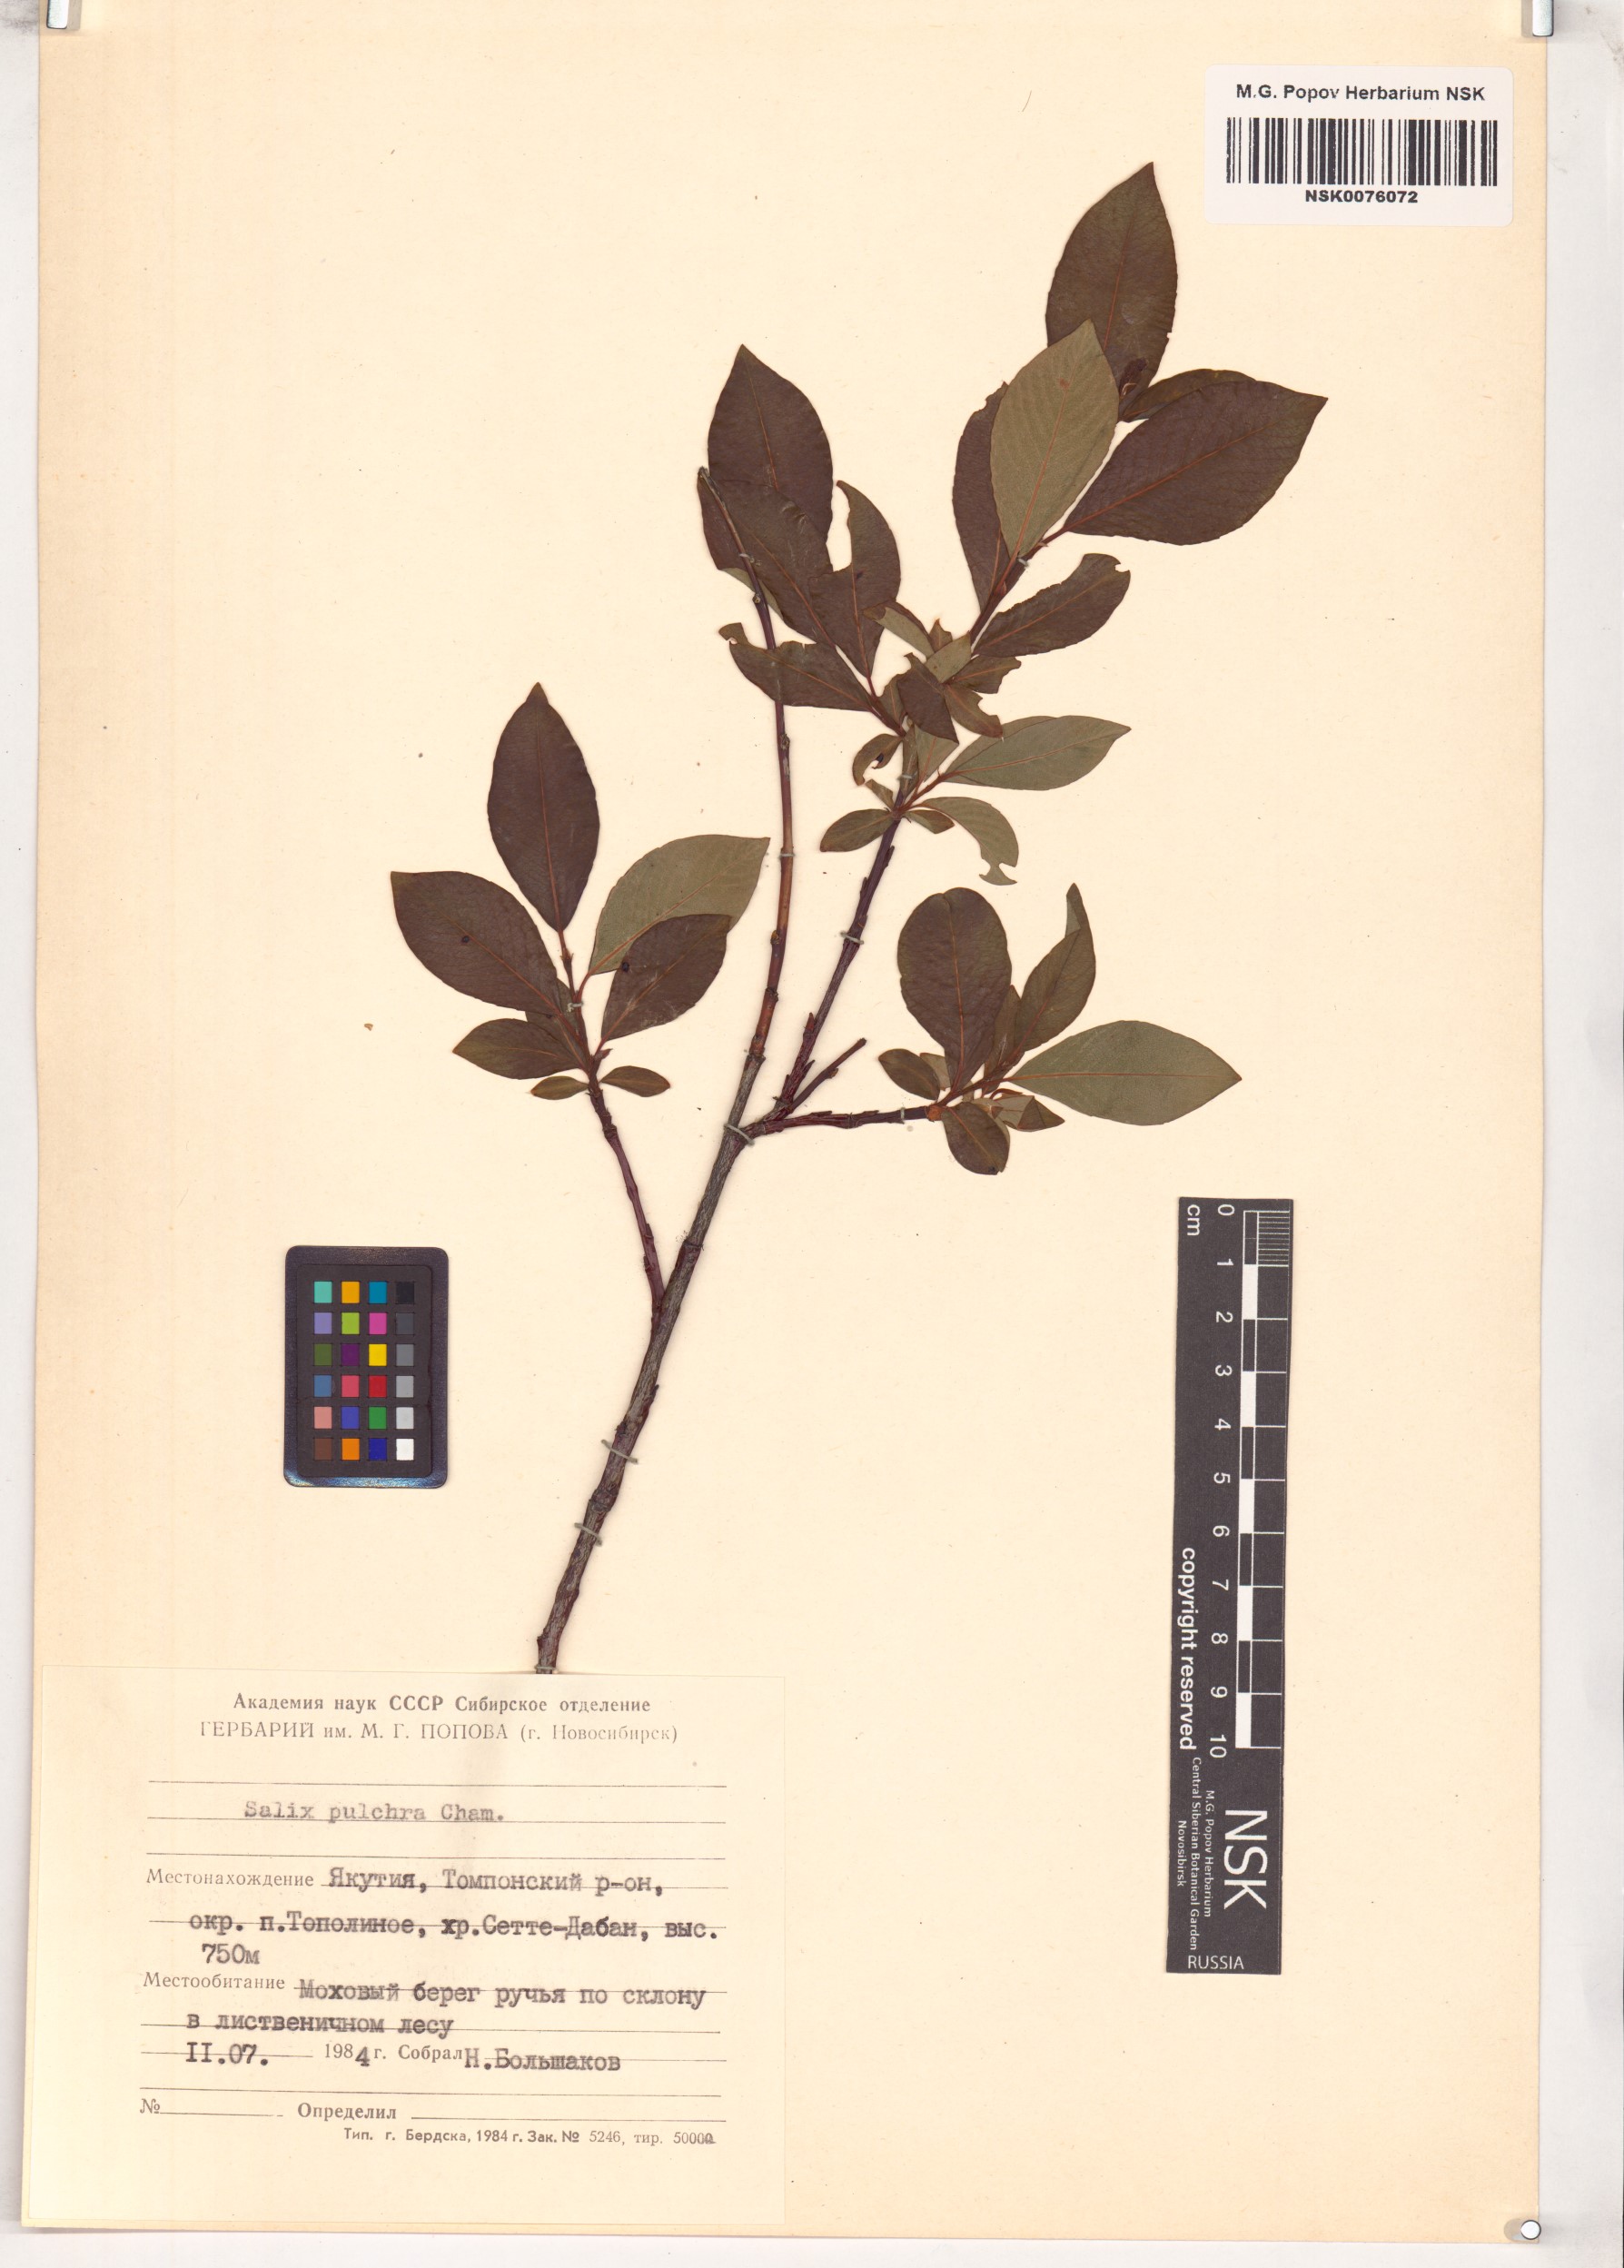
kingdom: Plantae
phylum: Tracheophyta
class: Magnoliopsida
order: Malpighiales
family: Salicaceae
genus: Salix
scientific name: Salix pulchra
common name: Diamond-leaved willow
